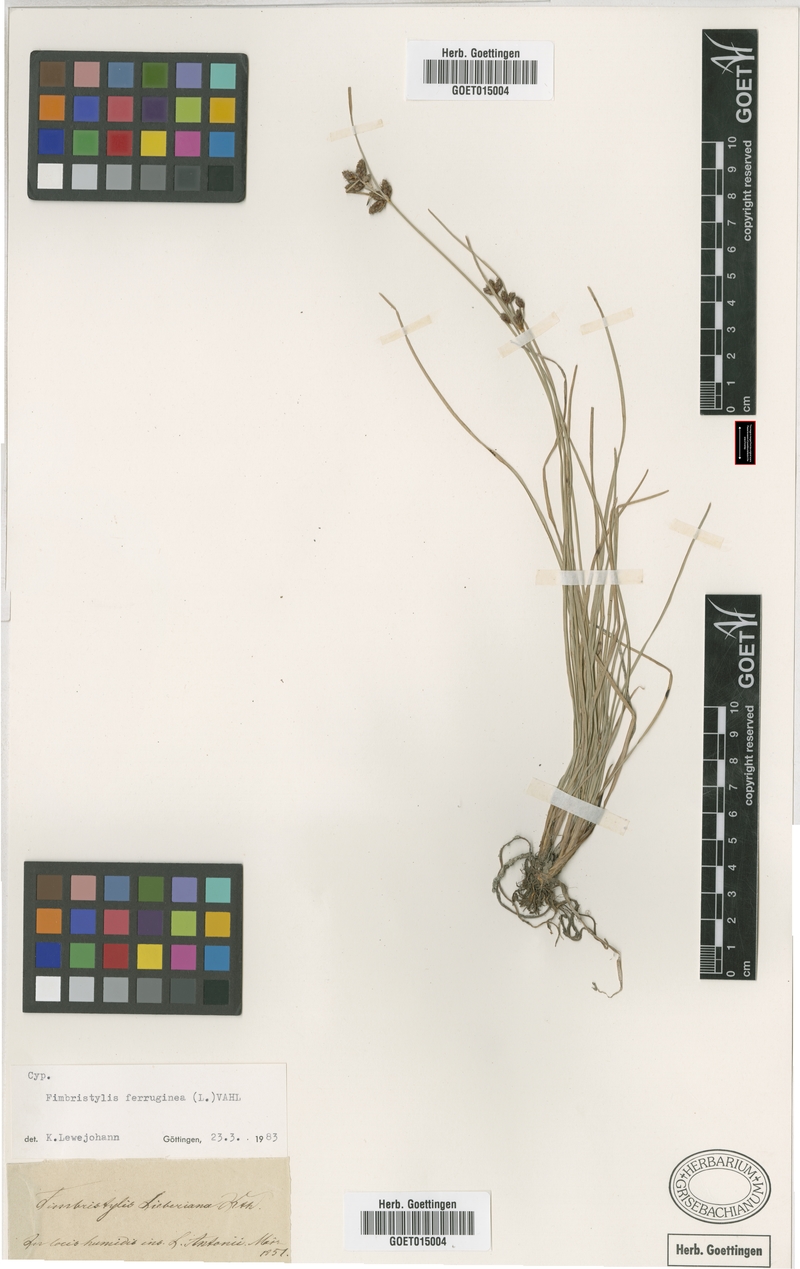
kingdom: Plantae
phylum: Tracheophyta
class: Liliopsida
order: Poales
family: Cyperaceae
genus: Fimbristylis
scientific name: Fimbristylis ferruginea
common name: West indian fimbry
